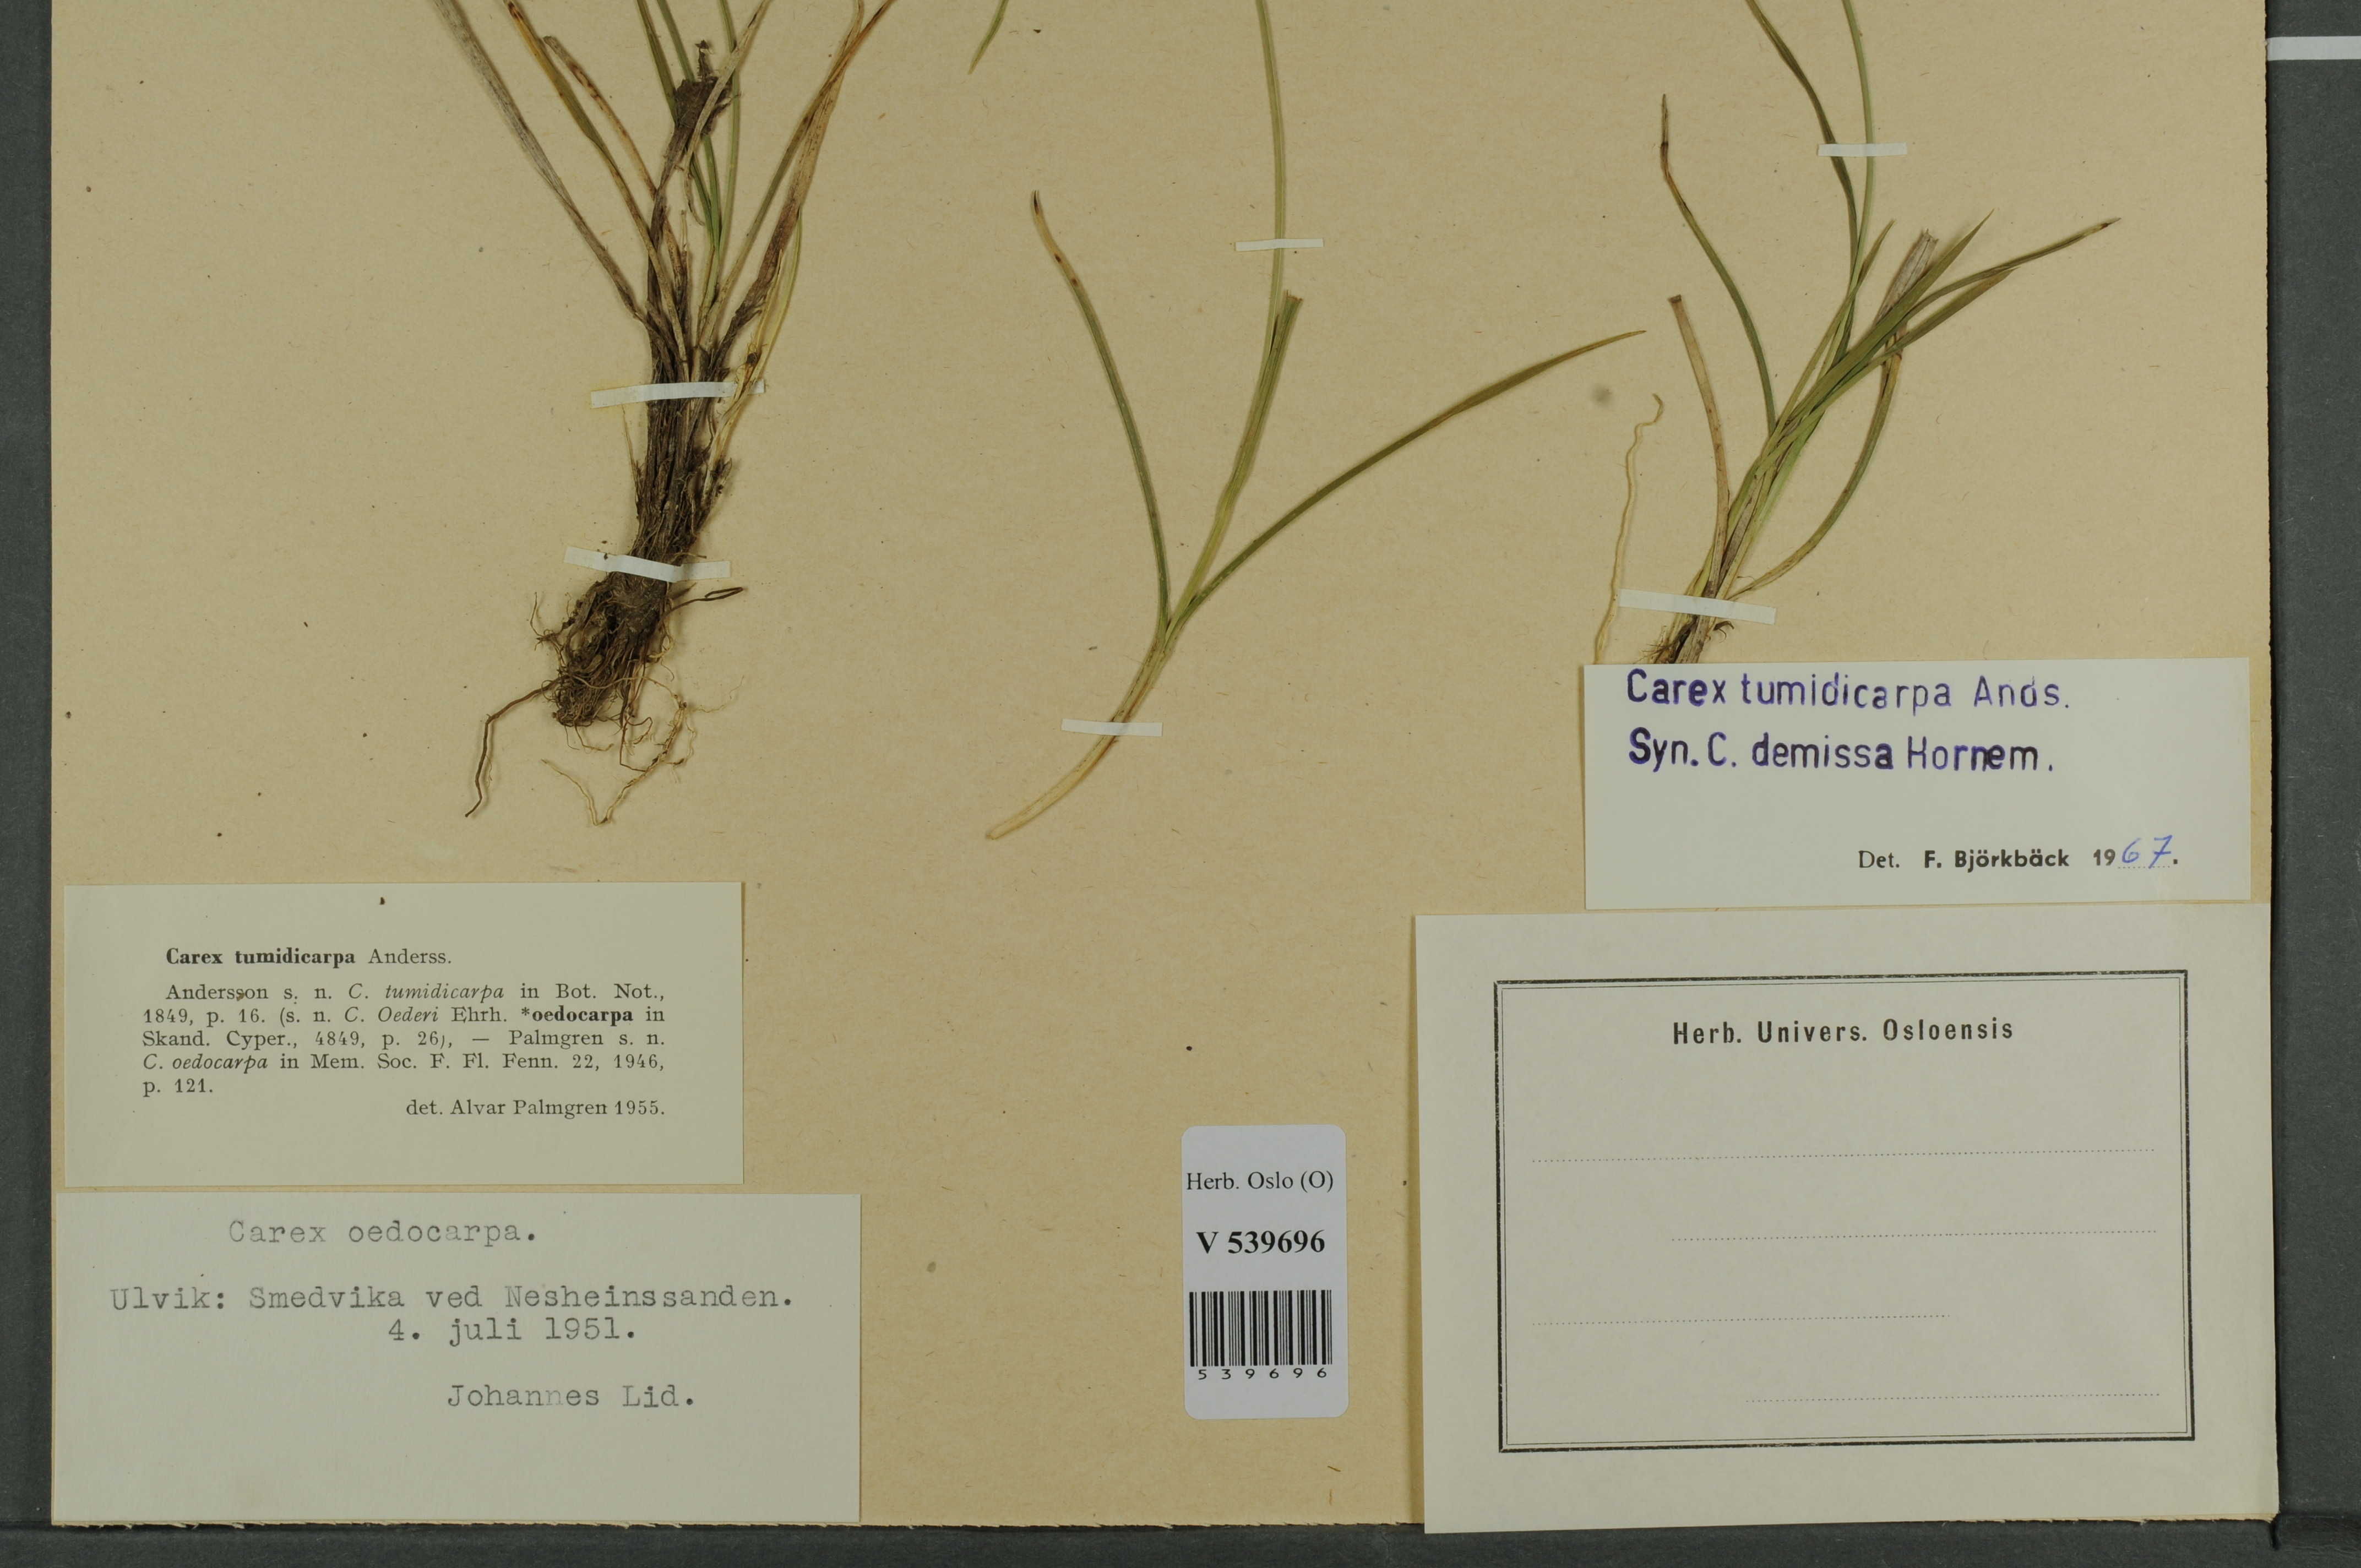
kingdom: Plantae
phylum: Tracheophyta
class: Liliopsida
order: Poales
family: Cyperaceae
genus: Carex
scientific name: Carex demissa
